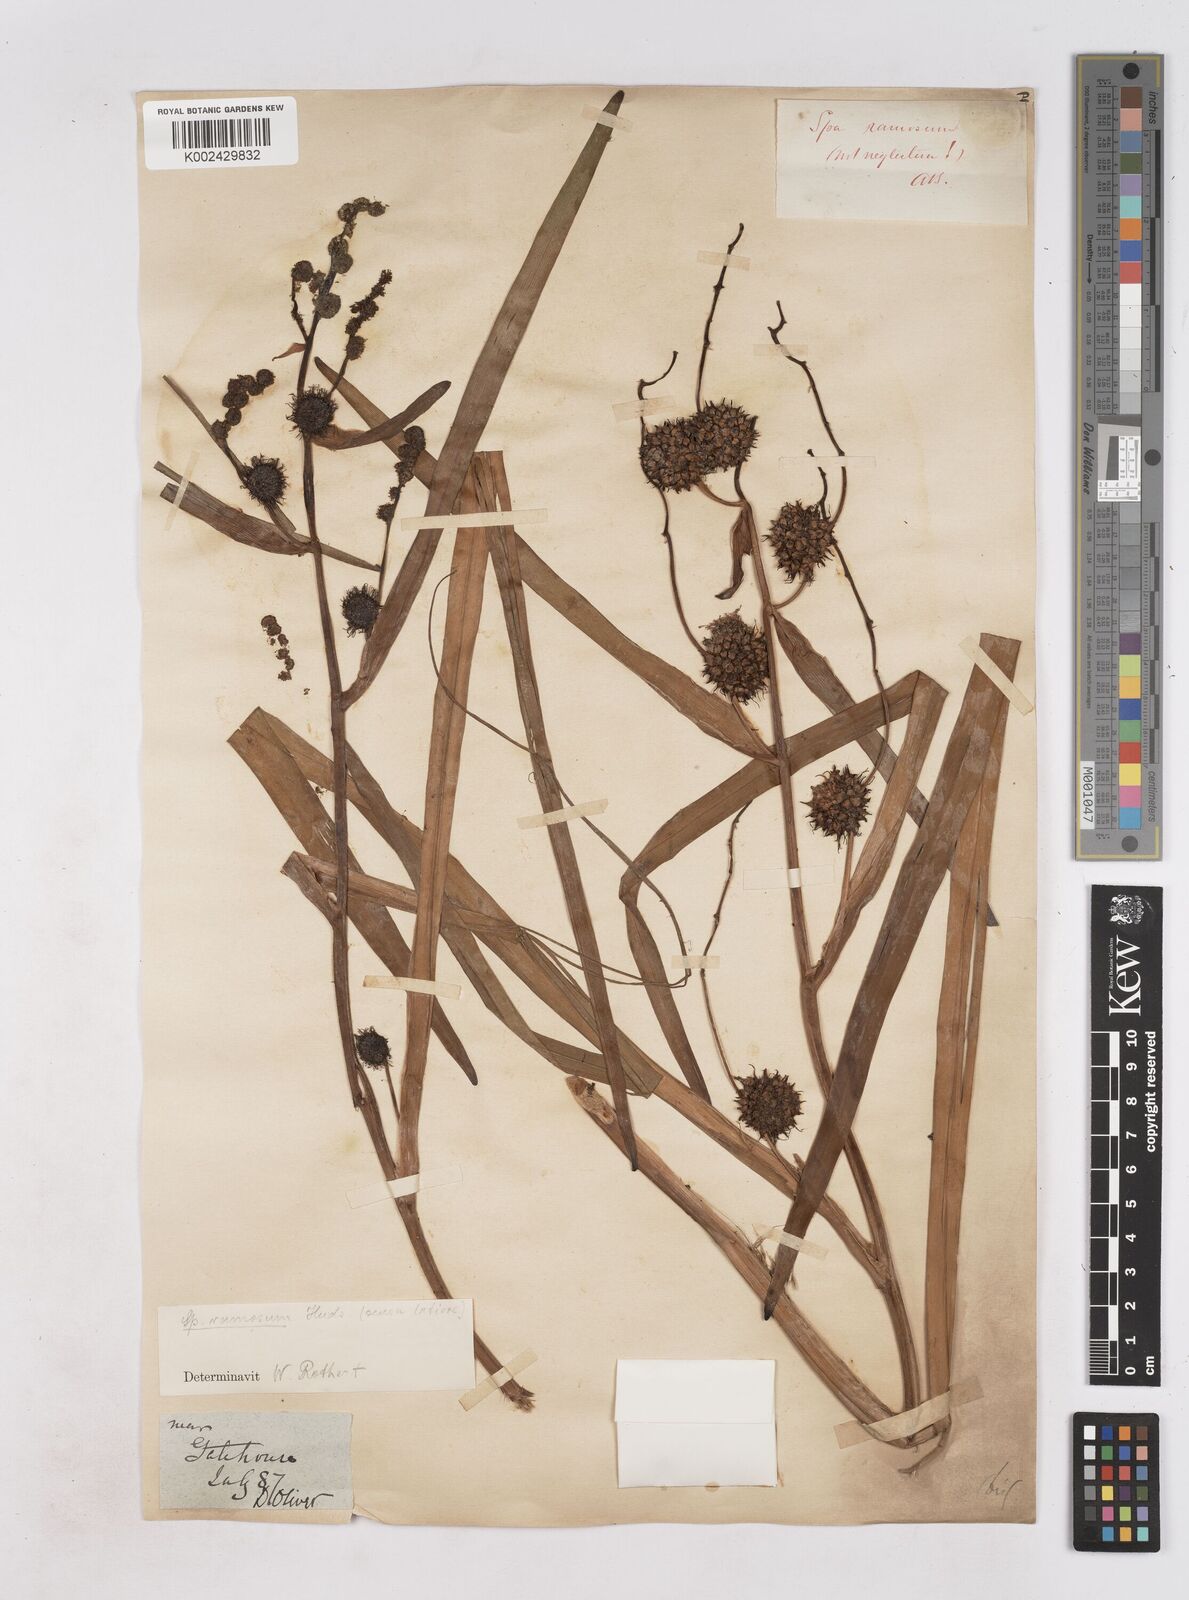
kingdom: Plantae
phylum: Tracheophyta
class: Liliopsida
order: Poales
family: Typhaceae
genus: Sparganium
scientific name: Sparganium erectum
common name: Branched bur-reed
